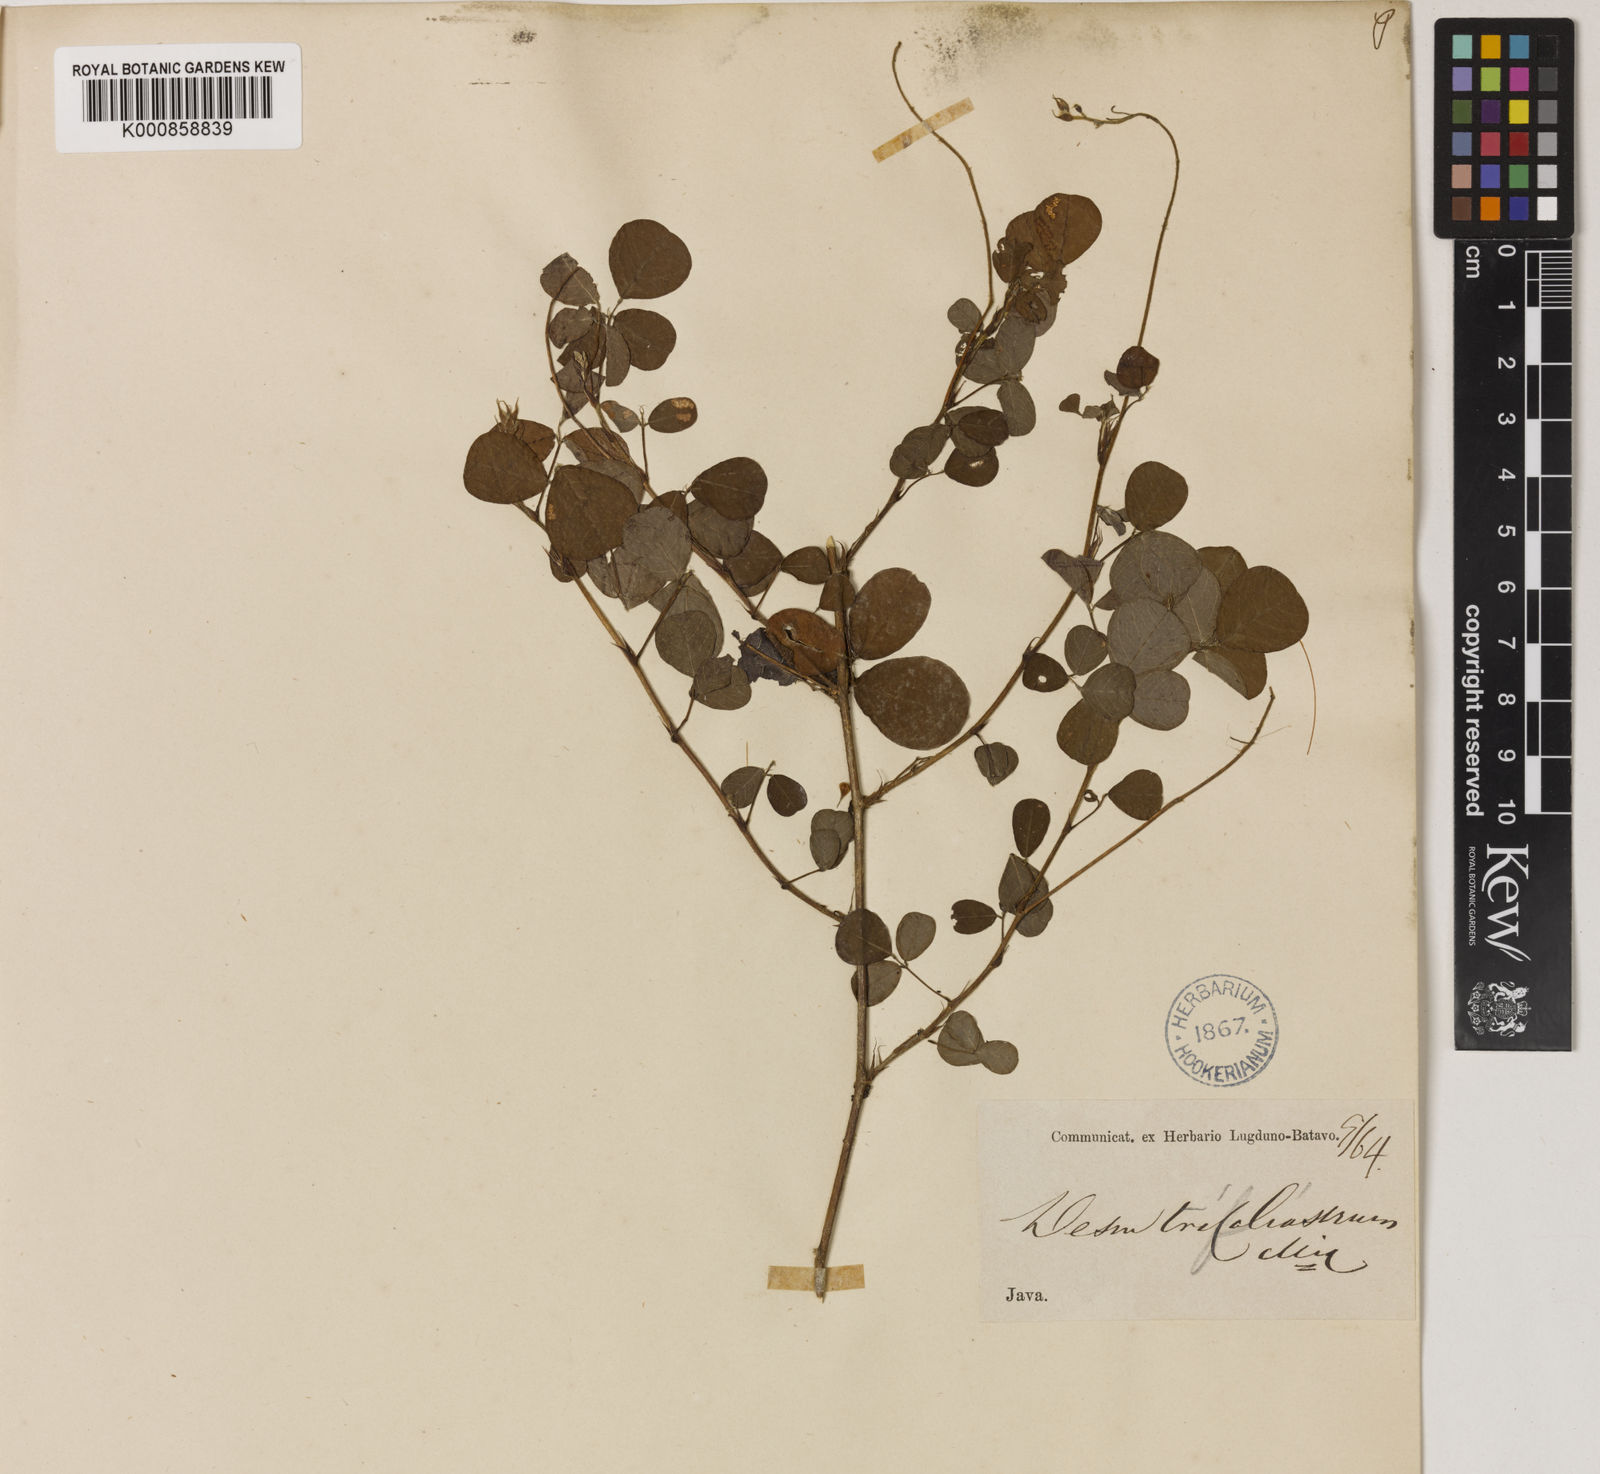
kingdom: Plantae
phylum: Tracheophyta
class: Magnoliopsida
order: Fabales
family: Fabaceae
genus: Desmodium
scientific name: Desmodium
